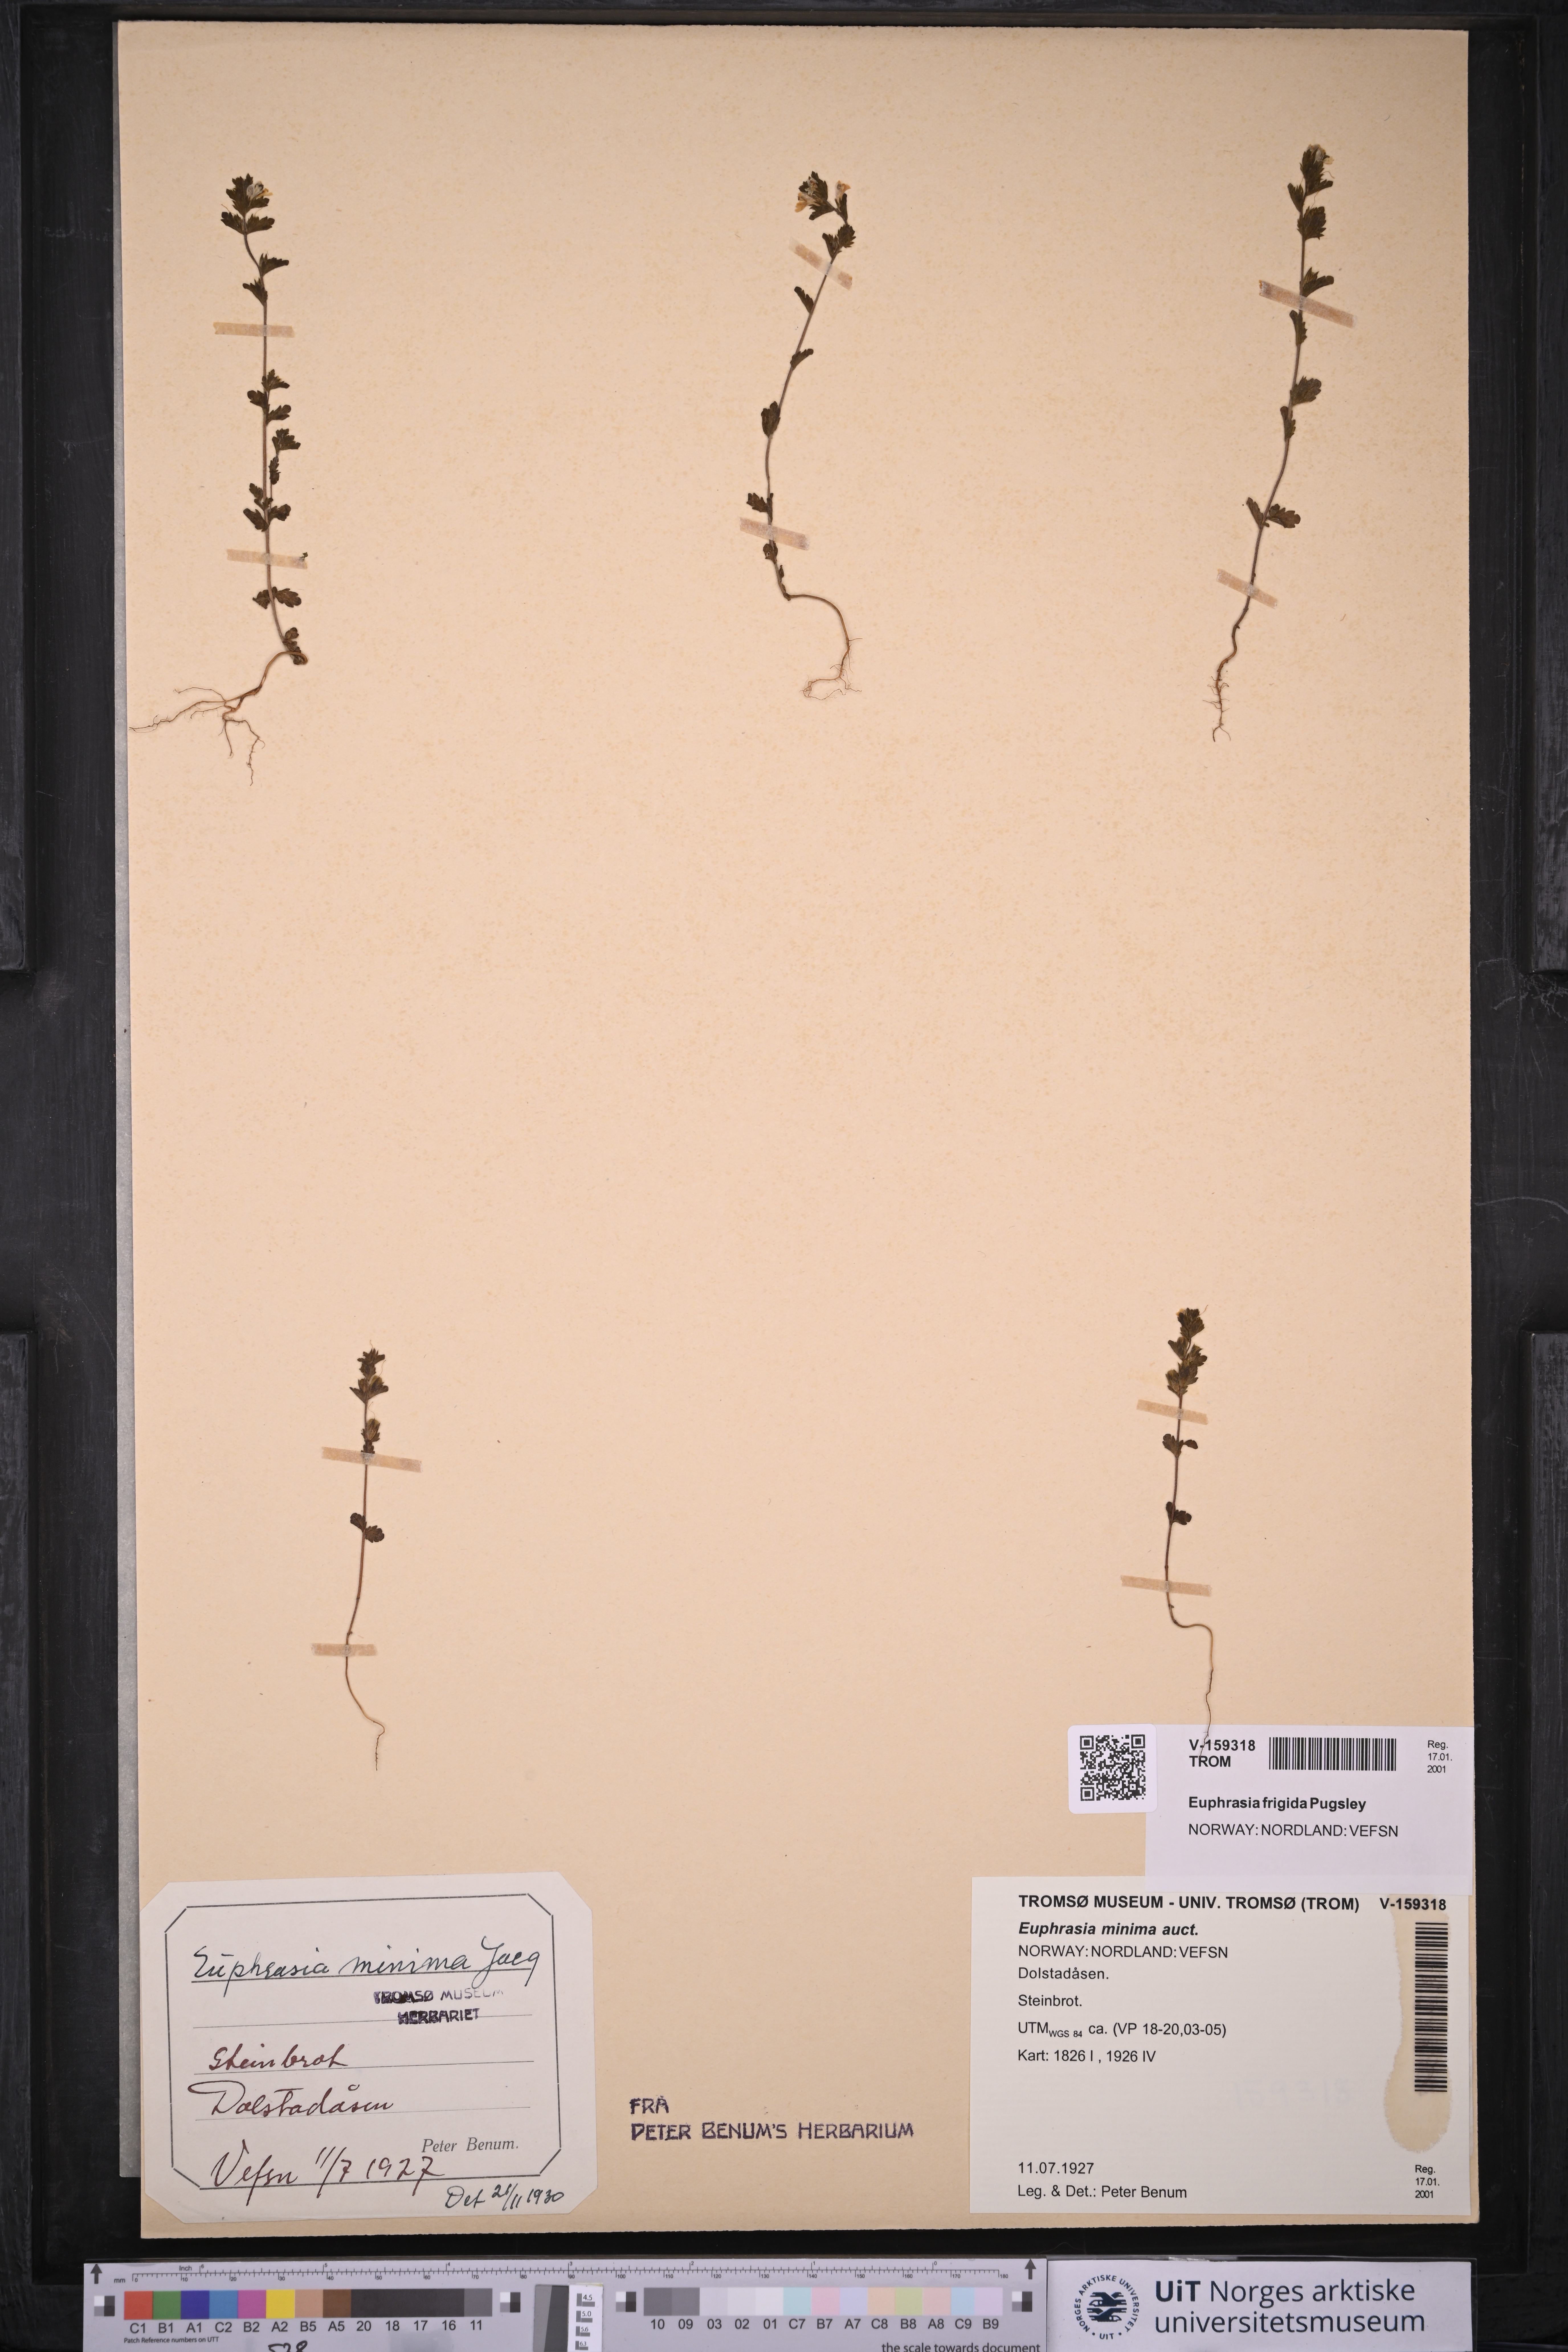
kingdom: Plantae
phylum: Tracheophyta
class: Magnoliopsida
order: Lamiales
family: Orobanchaceae
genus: Euphrasia
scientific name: Euphrasia wettsteinii
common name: Wettstein's eyebright
